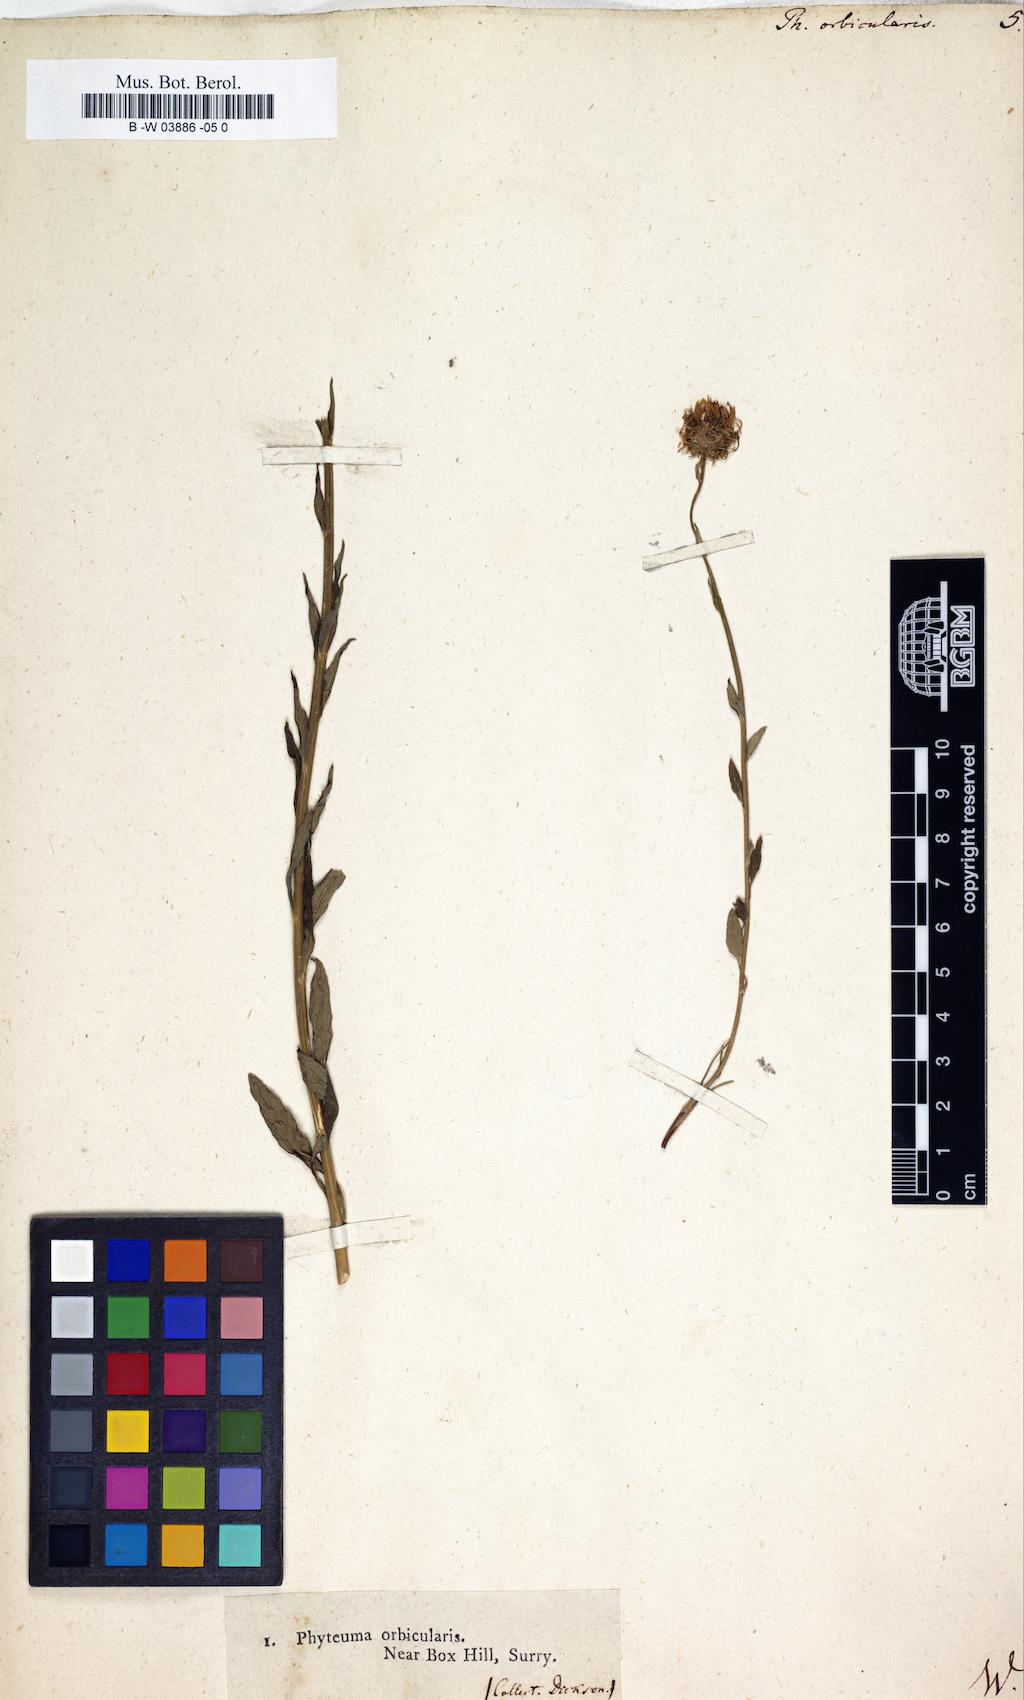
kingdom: Plantae
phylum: Tracheophyta
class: Magnoliopsida
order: Asterales
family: Campanulaceae
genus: Phyteuma
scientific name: Phyteuma orbiculare
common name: Round-headed rampion
